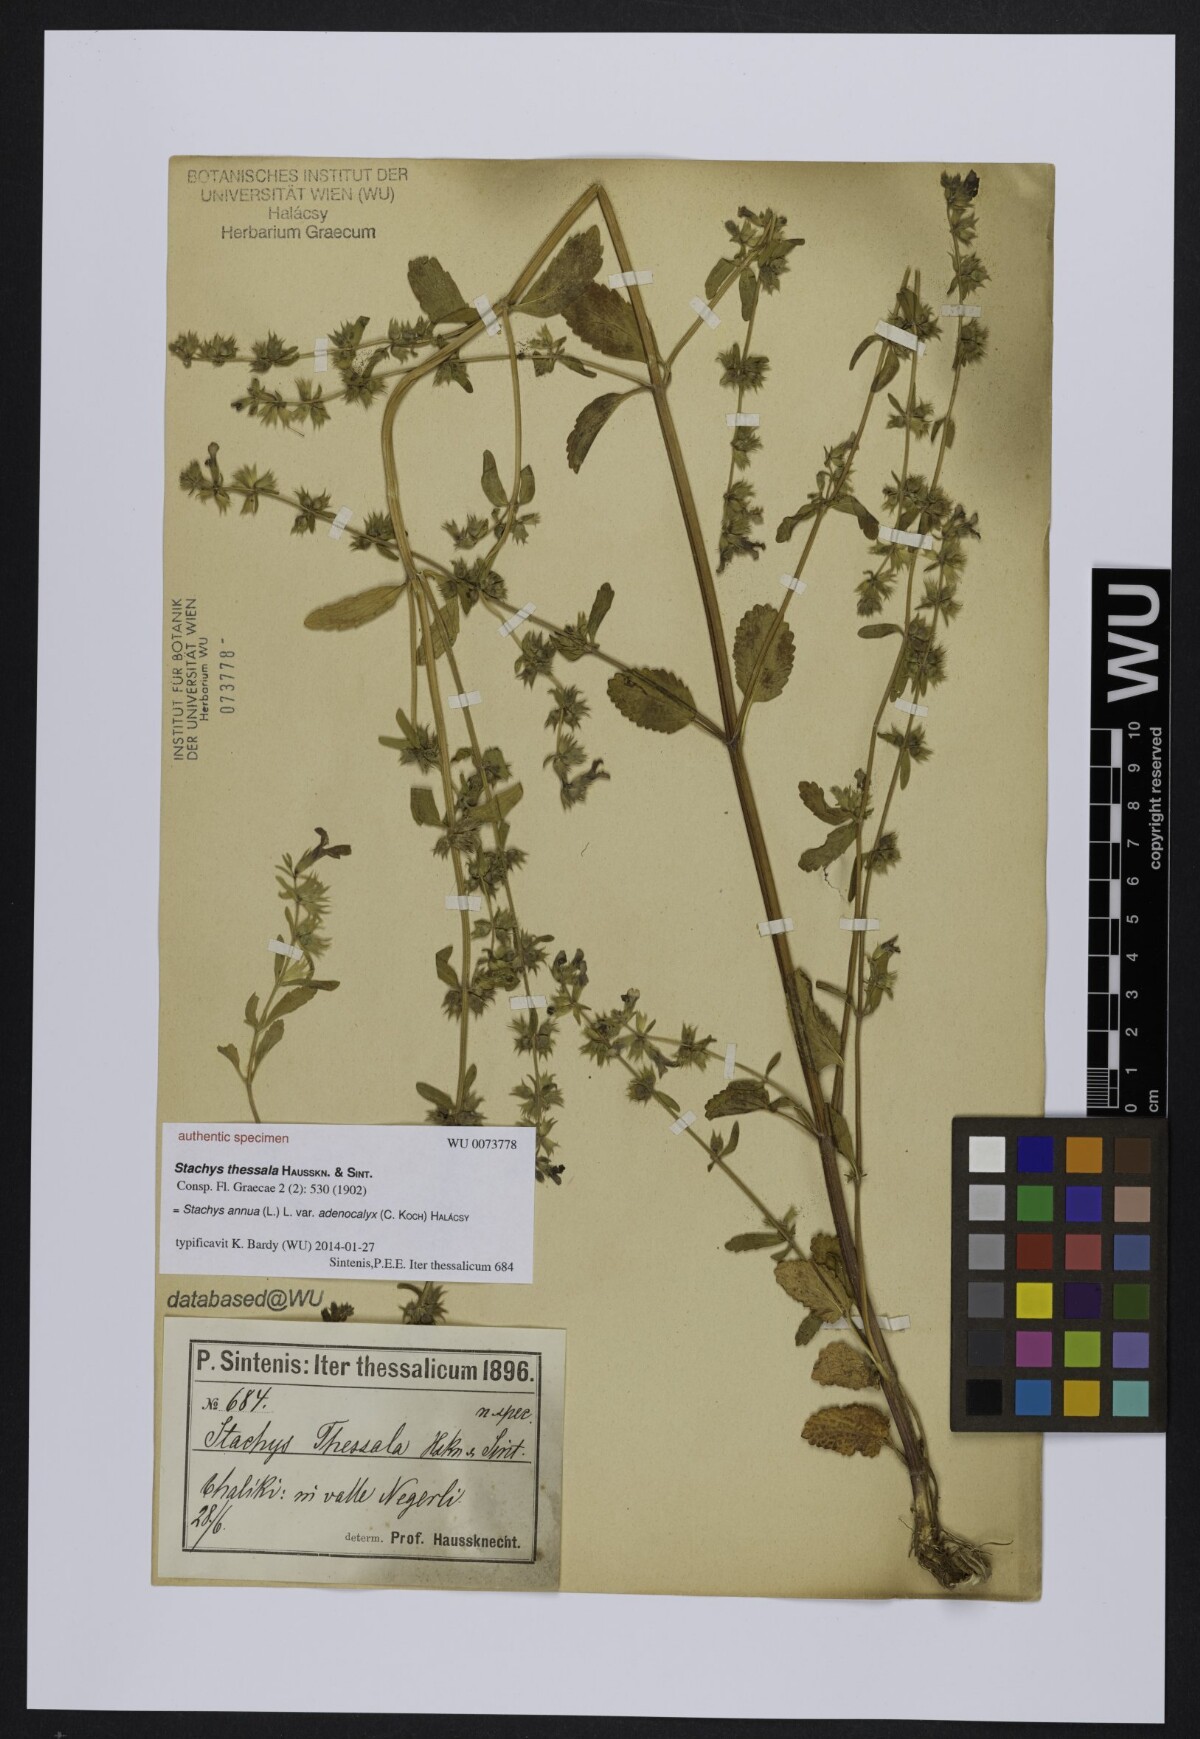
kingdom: Plantae
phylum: Tracheophyta
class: Magnoliopsida
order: Lamiales
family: Lamiaceae
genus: Stachys
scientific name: Stachys
